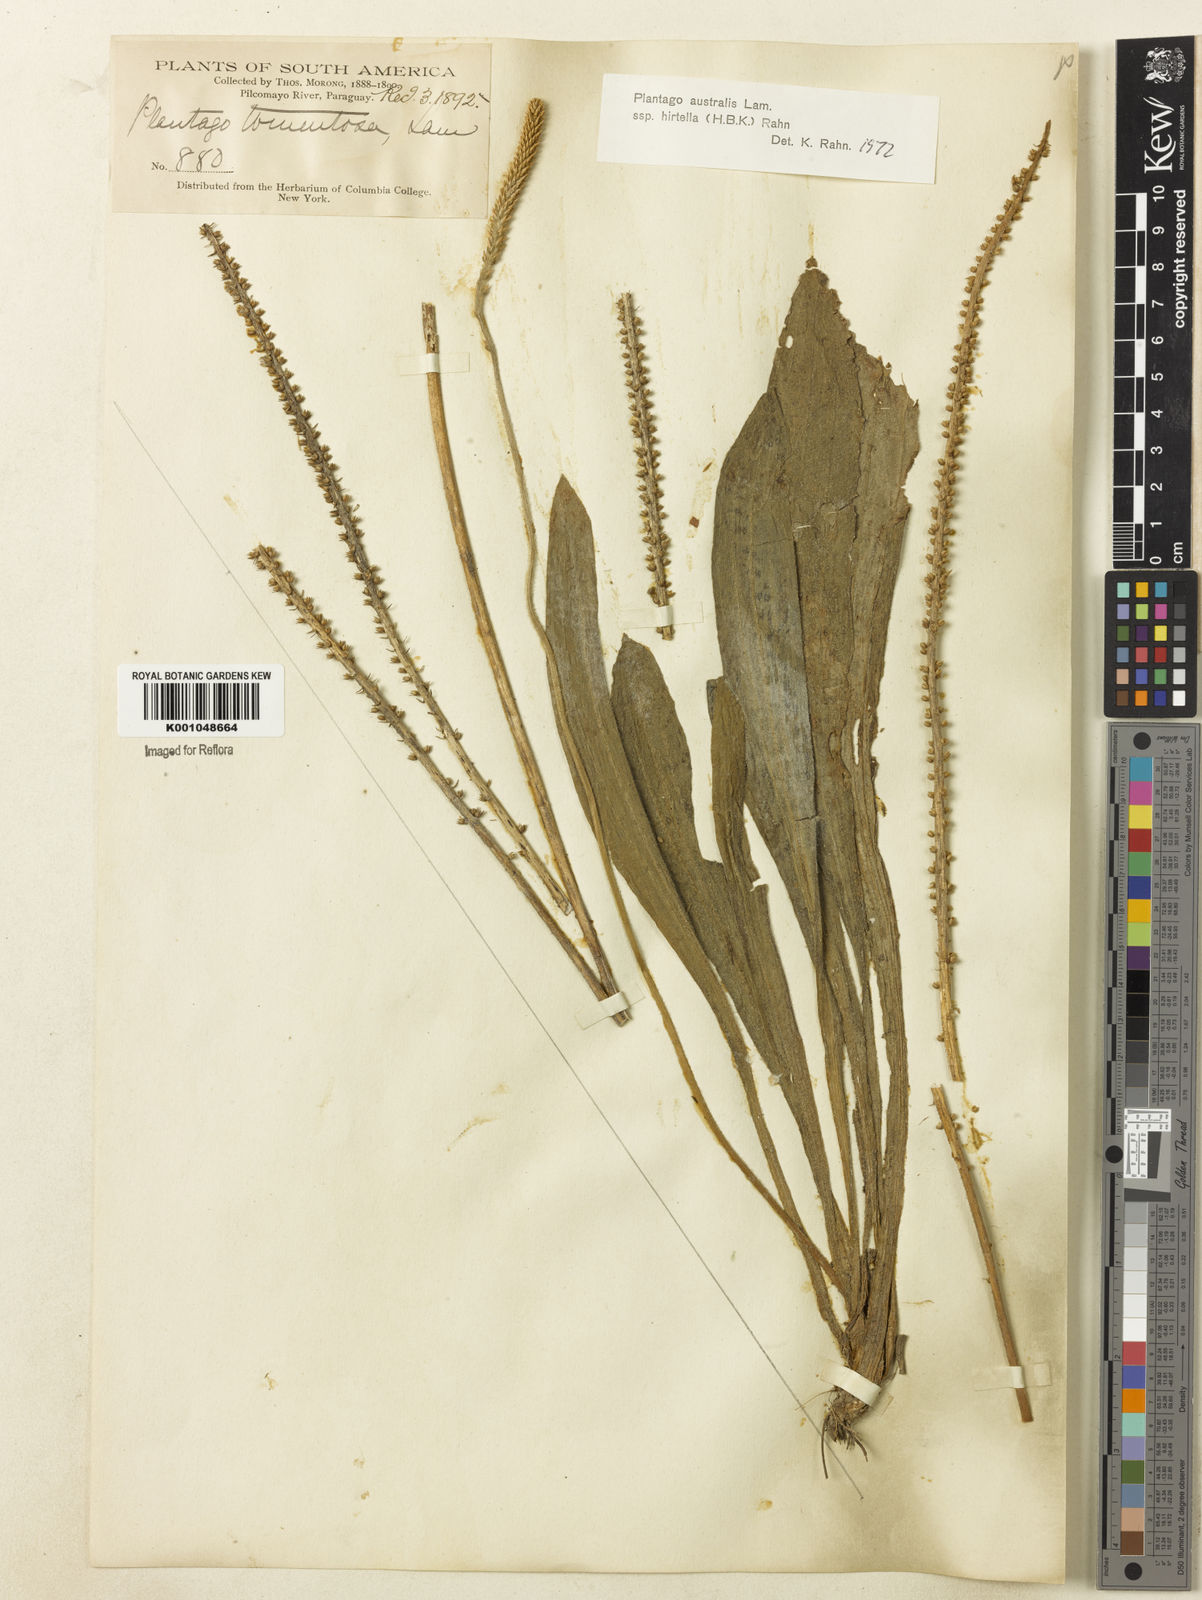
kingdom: Plantae
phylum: Tracheophyta
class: Magnoliopsida
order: Lamiales
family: Plantaginaceae
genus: Plantago
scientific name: Plantago australis
